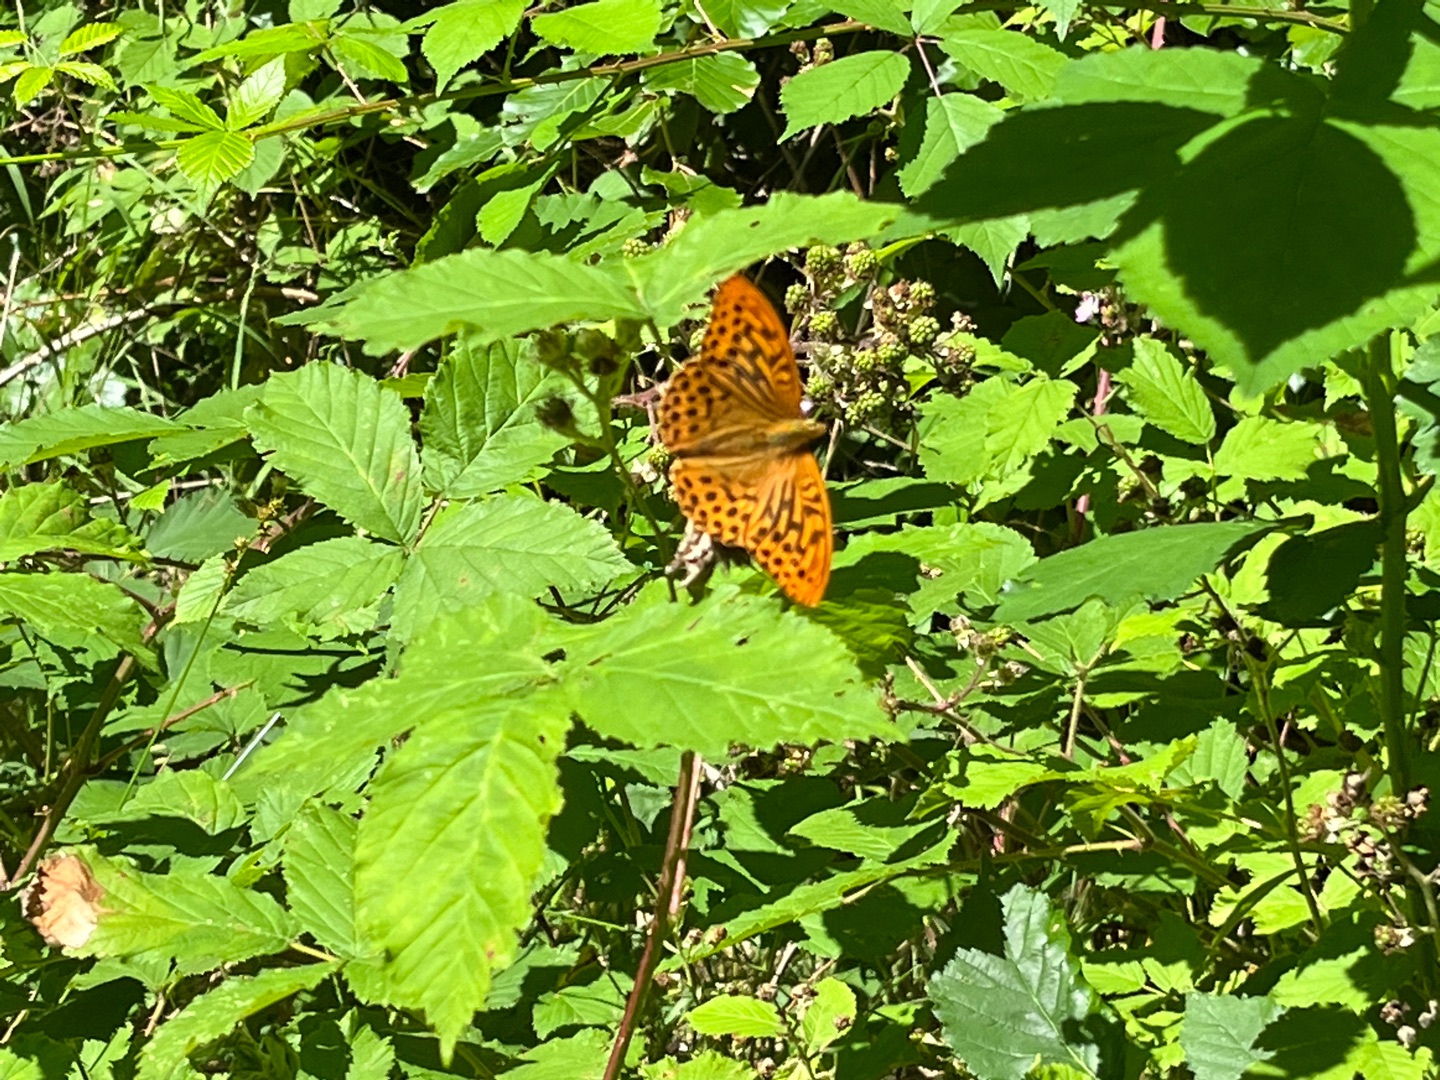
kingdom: Animalia
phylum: Arthropoda
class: Insecta
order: Lepidoptera
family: Nymphalidae
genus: Argynnis
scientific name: Argynnis paphia
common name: Kejserkåbe
